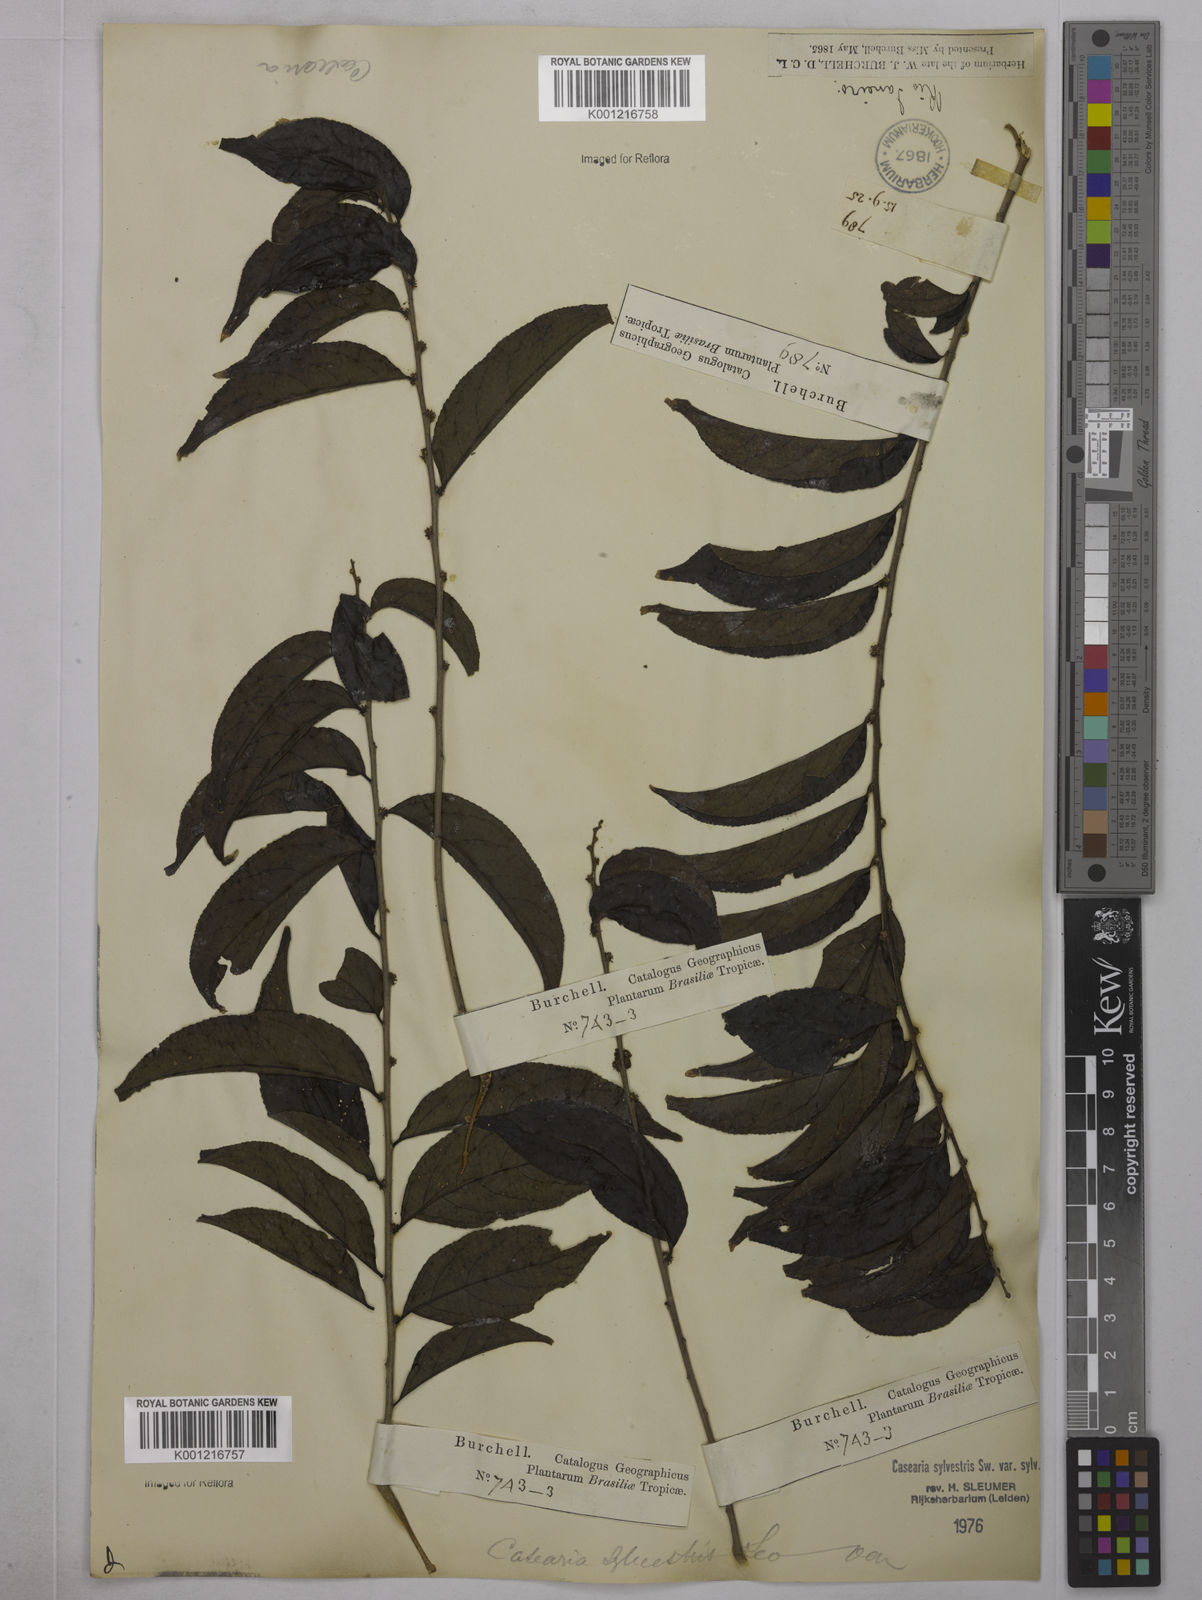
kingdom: Plantae
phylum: Tracheophyta
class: Magnoliopsida
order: Malpighiales
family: Salicaceae
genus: Casearia
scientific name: Casearia sylvestris
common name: Wild sage
